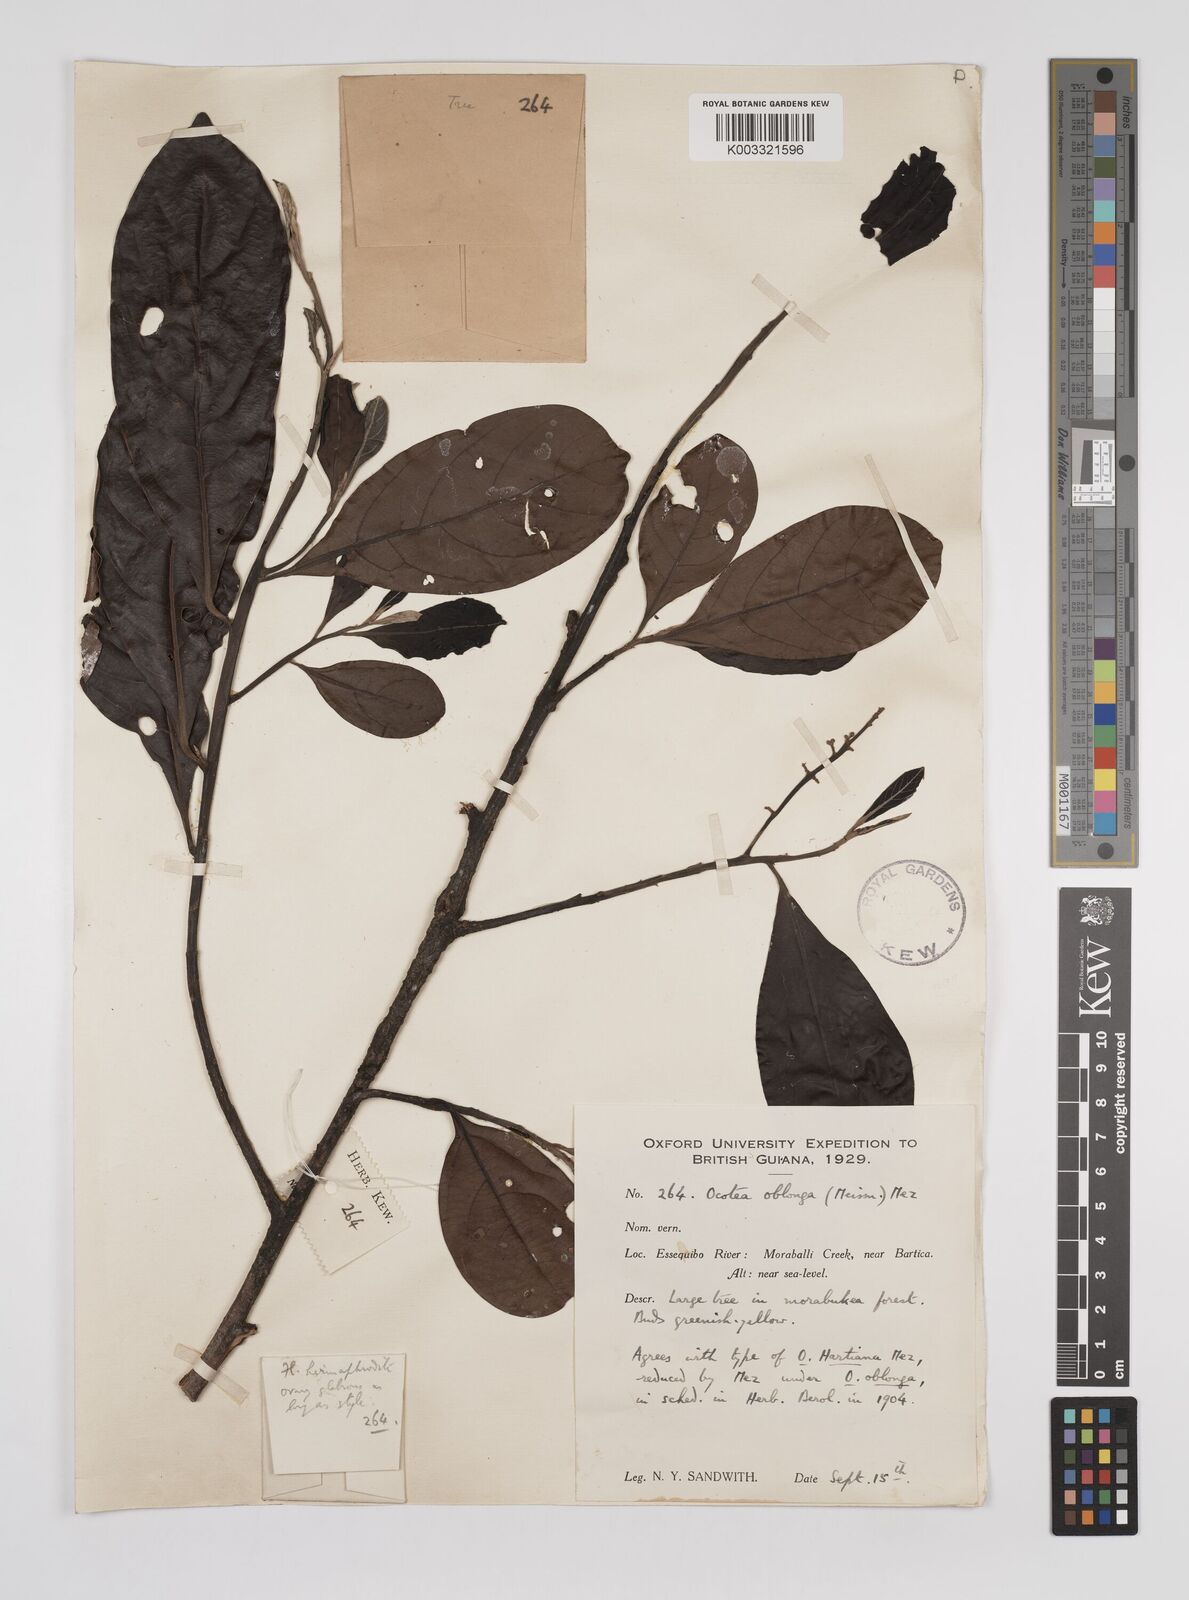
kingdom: Plantae
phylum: Tracheophyta
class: Magnoliopsida
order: Laurales
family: Lauraceae
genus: Ocotea
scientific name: Ocotea oblonga
